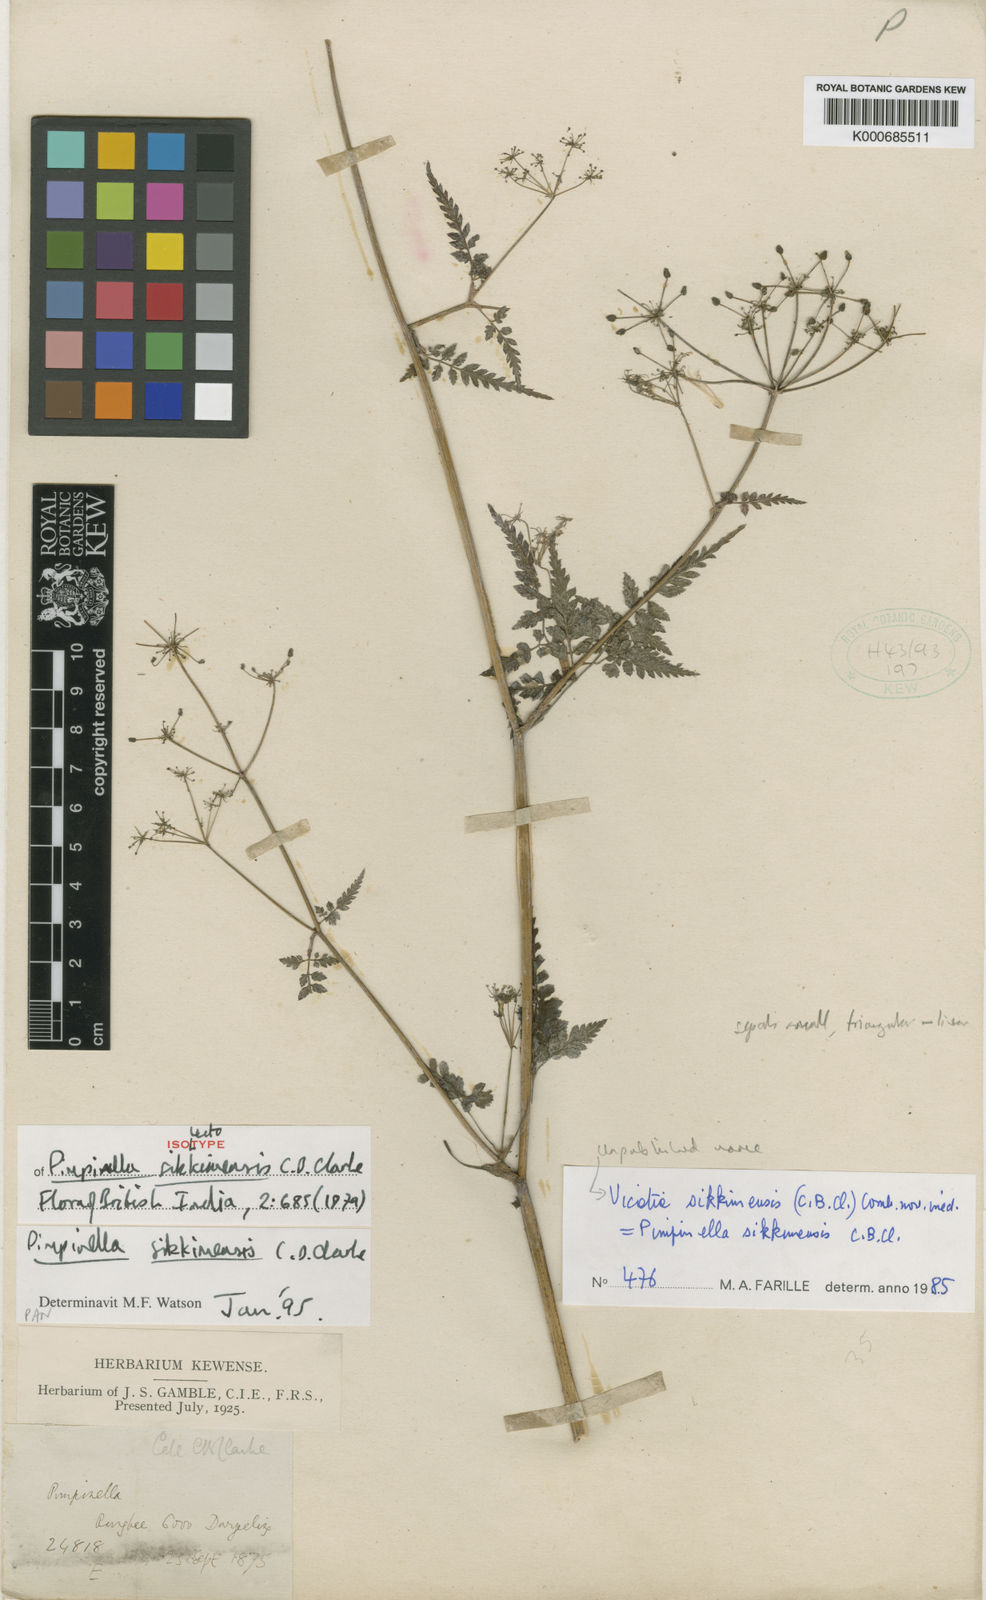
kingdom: Plantae
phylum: Tracheophyta
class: Magnoliopsida
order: Apiales
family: Apiaceae
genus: Pimpinella
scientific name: Pimpinella sikkimensis
